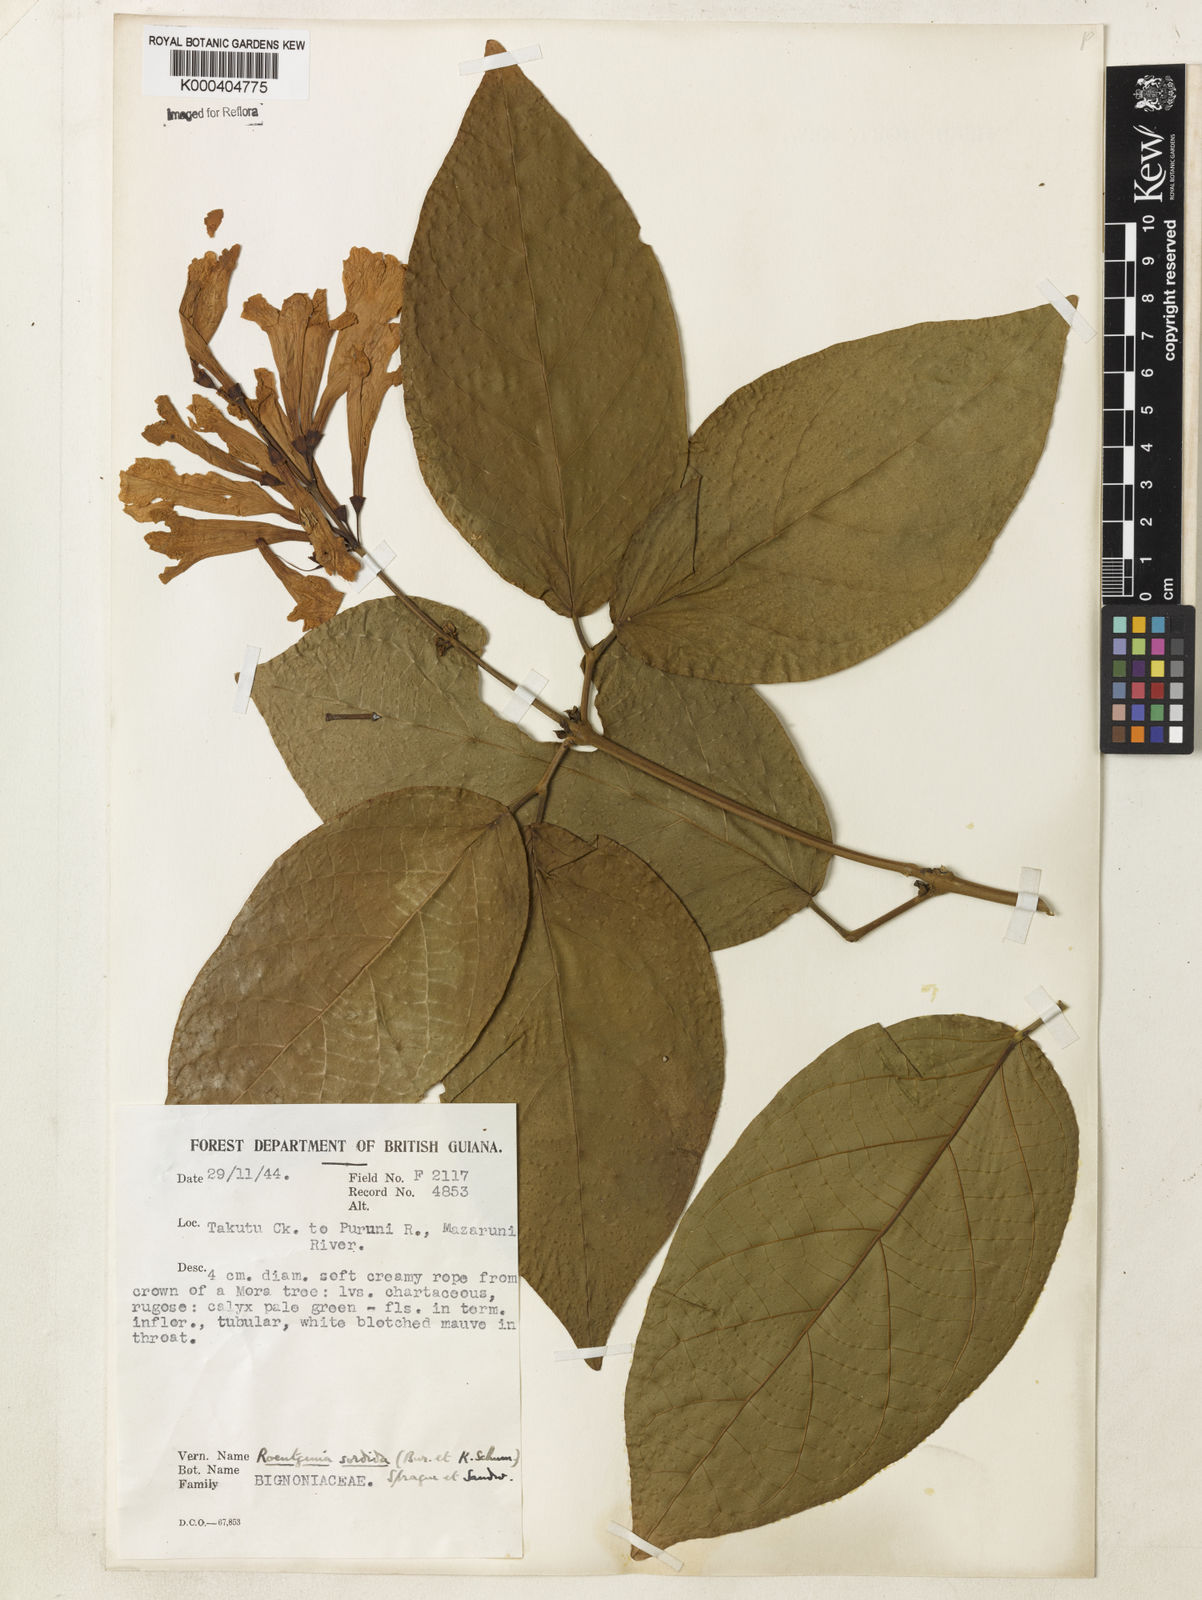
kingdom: Plantae
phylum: Tracheophyta
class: Magnoliopsida
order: Lamiales
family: Bignoniaceae
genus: Bignonia
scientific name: Bignonia sordida
